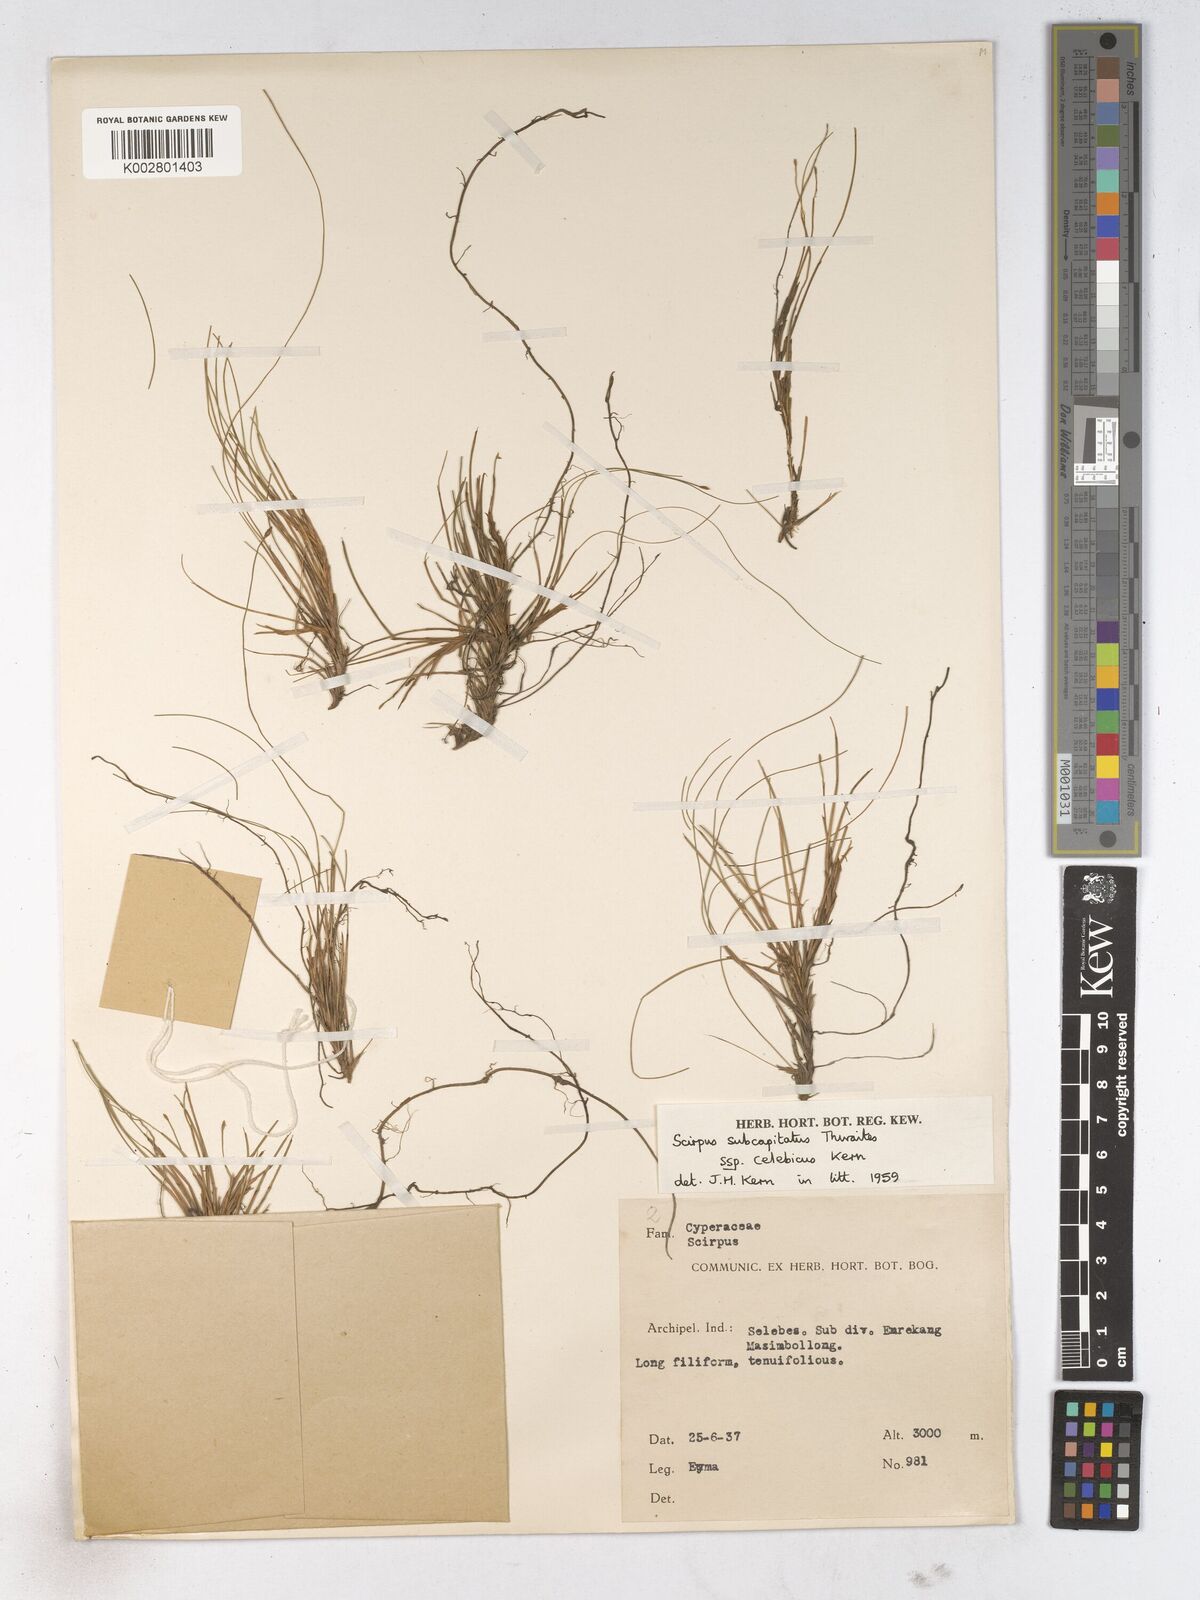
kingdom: Plantae
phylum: Tracheophyta
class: Liliopsida
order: Poales
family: Cyperaceae
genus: Trichophorum
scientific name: Trichophorum subcapitatum
